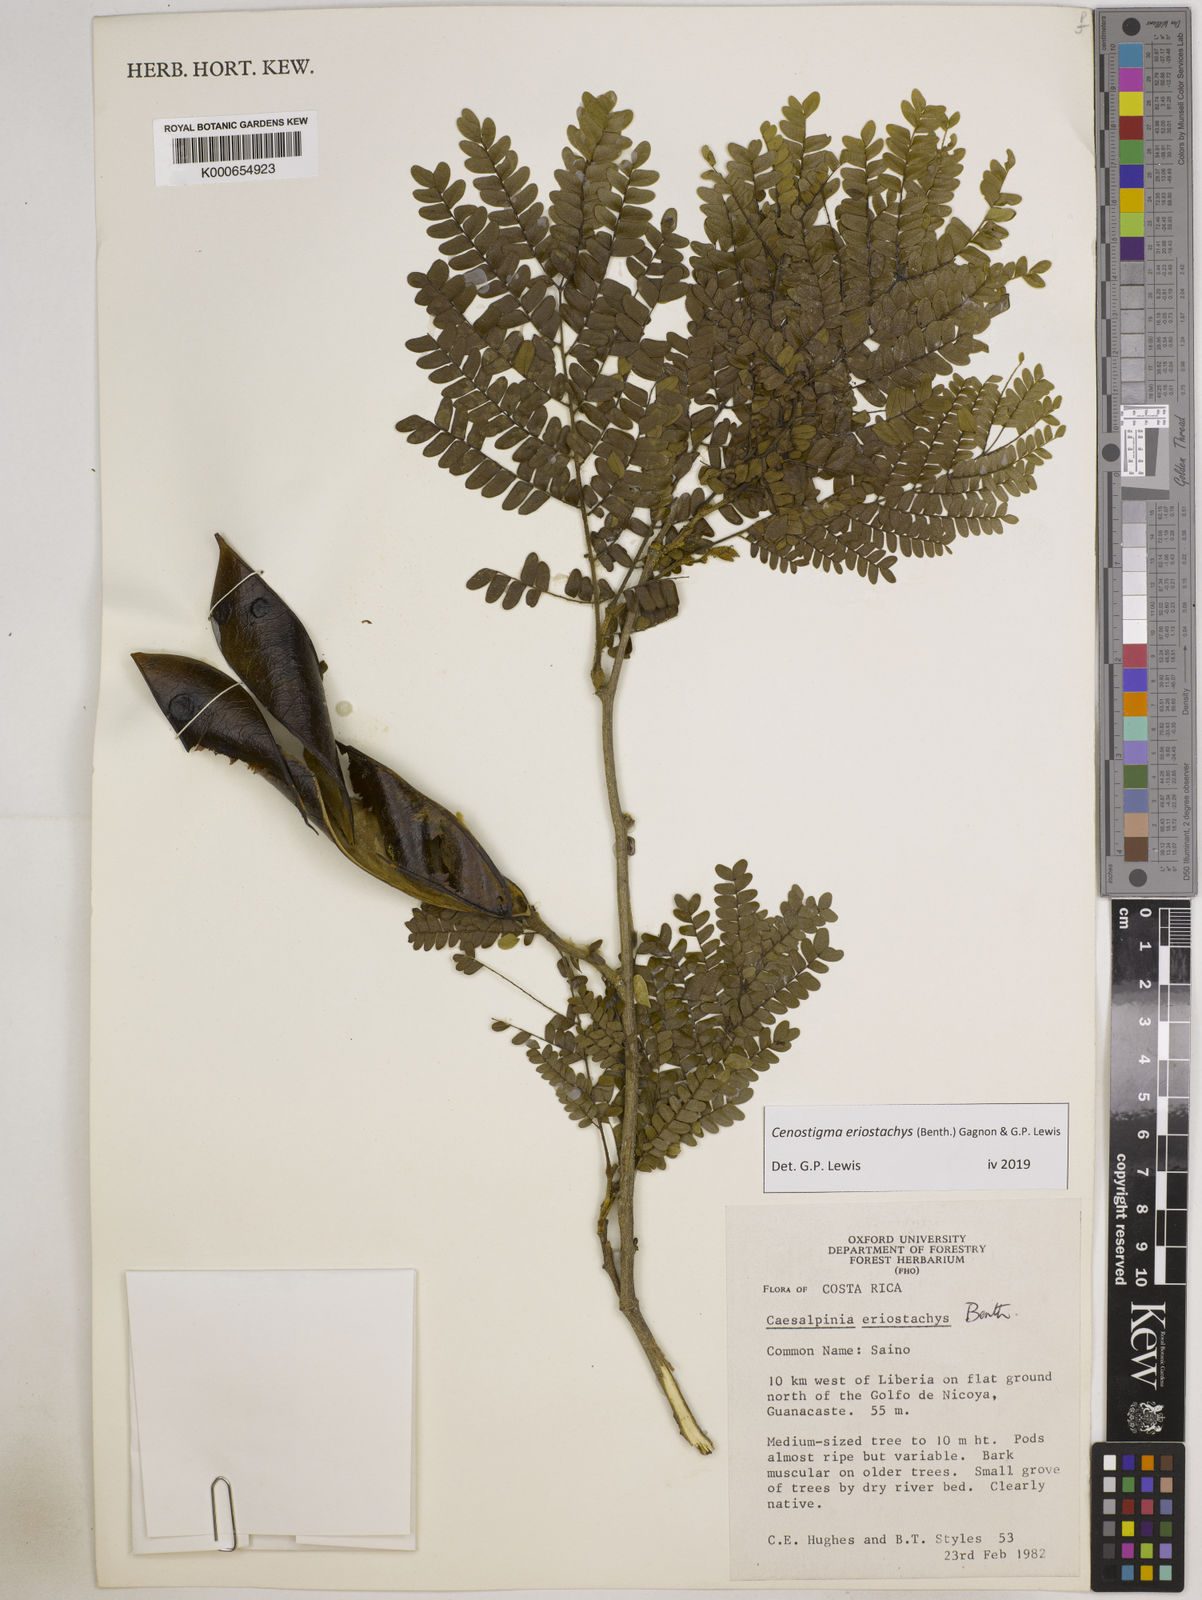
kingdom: Plantae
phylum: Tracheophyta
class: Magnoliopsida
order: Fabales
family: Fabaceae
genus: Cenostigma
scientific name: Cenostigma eriostachys
